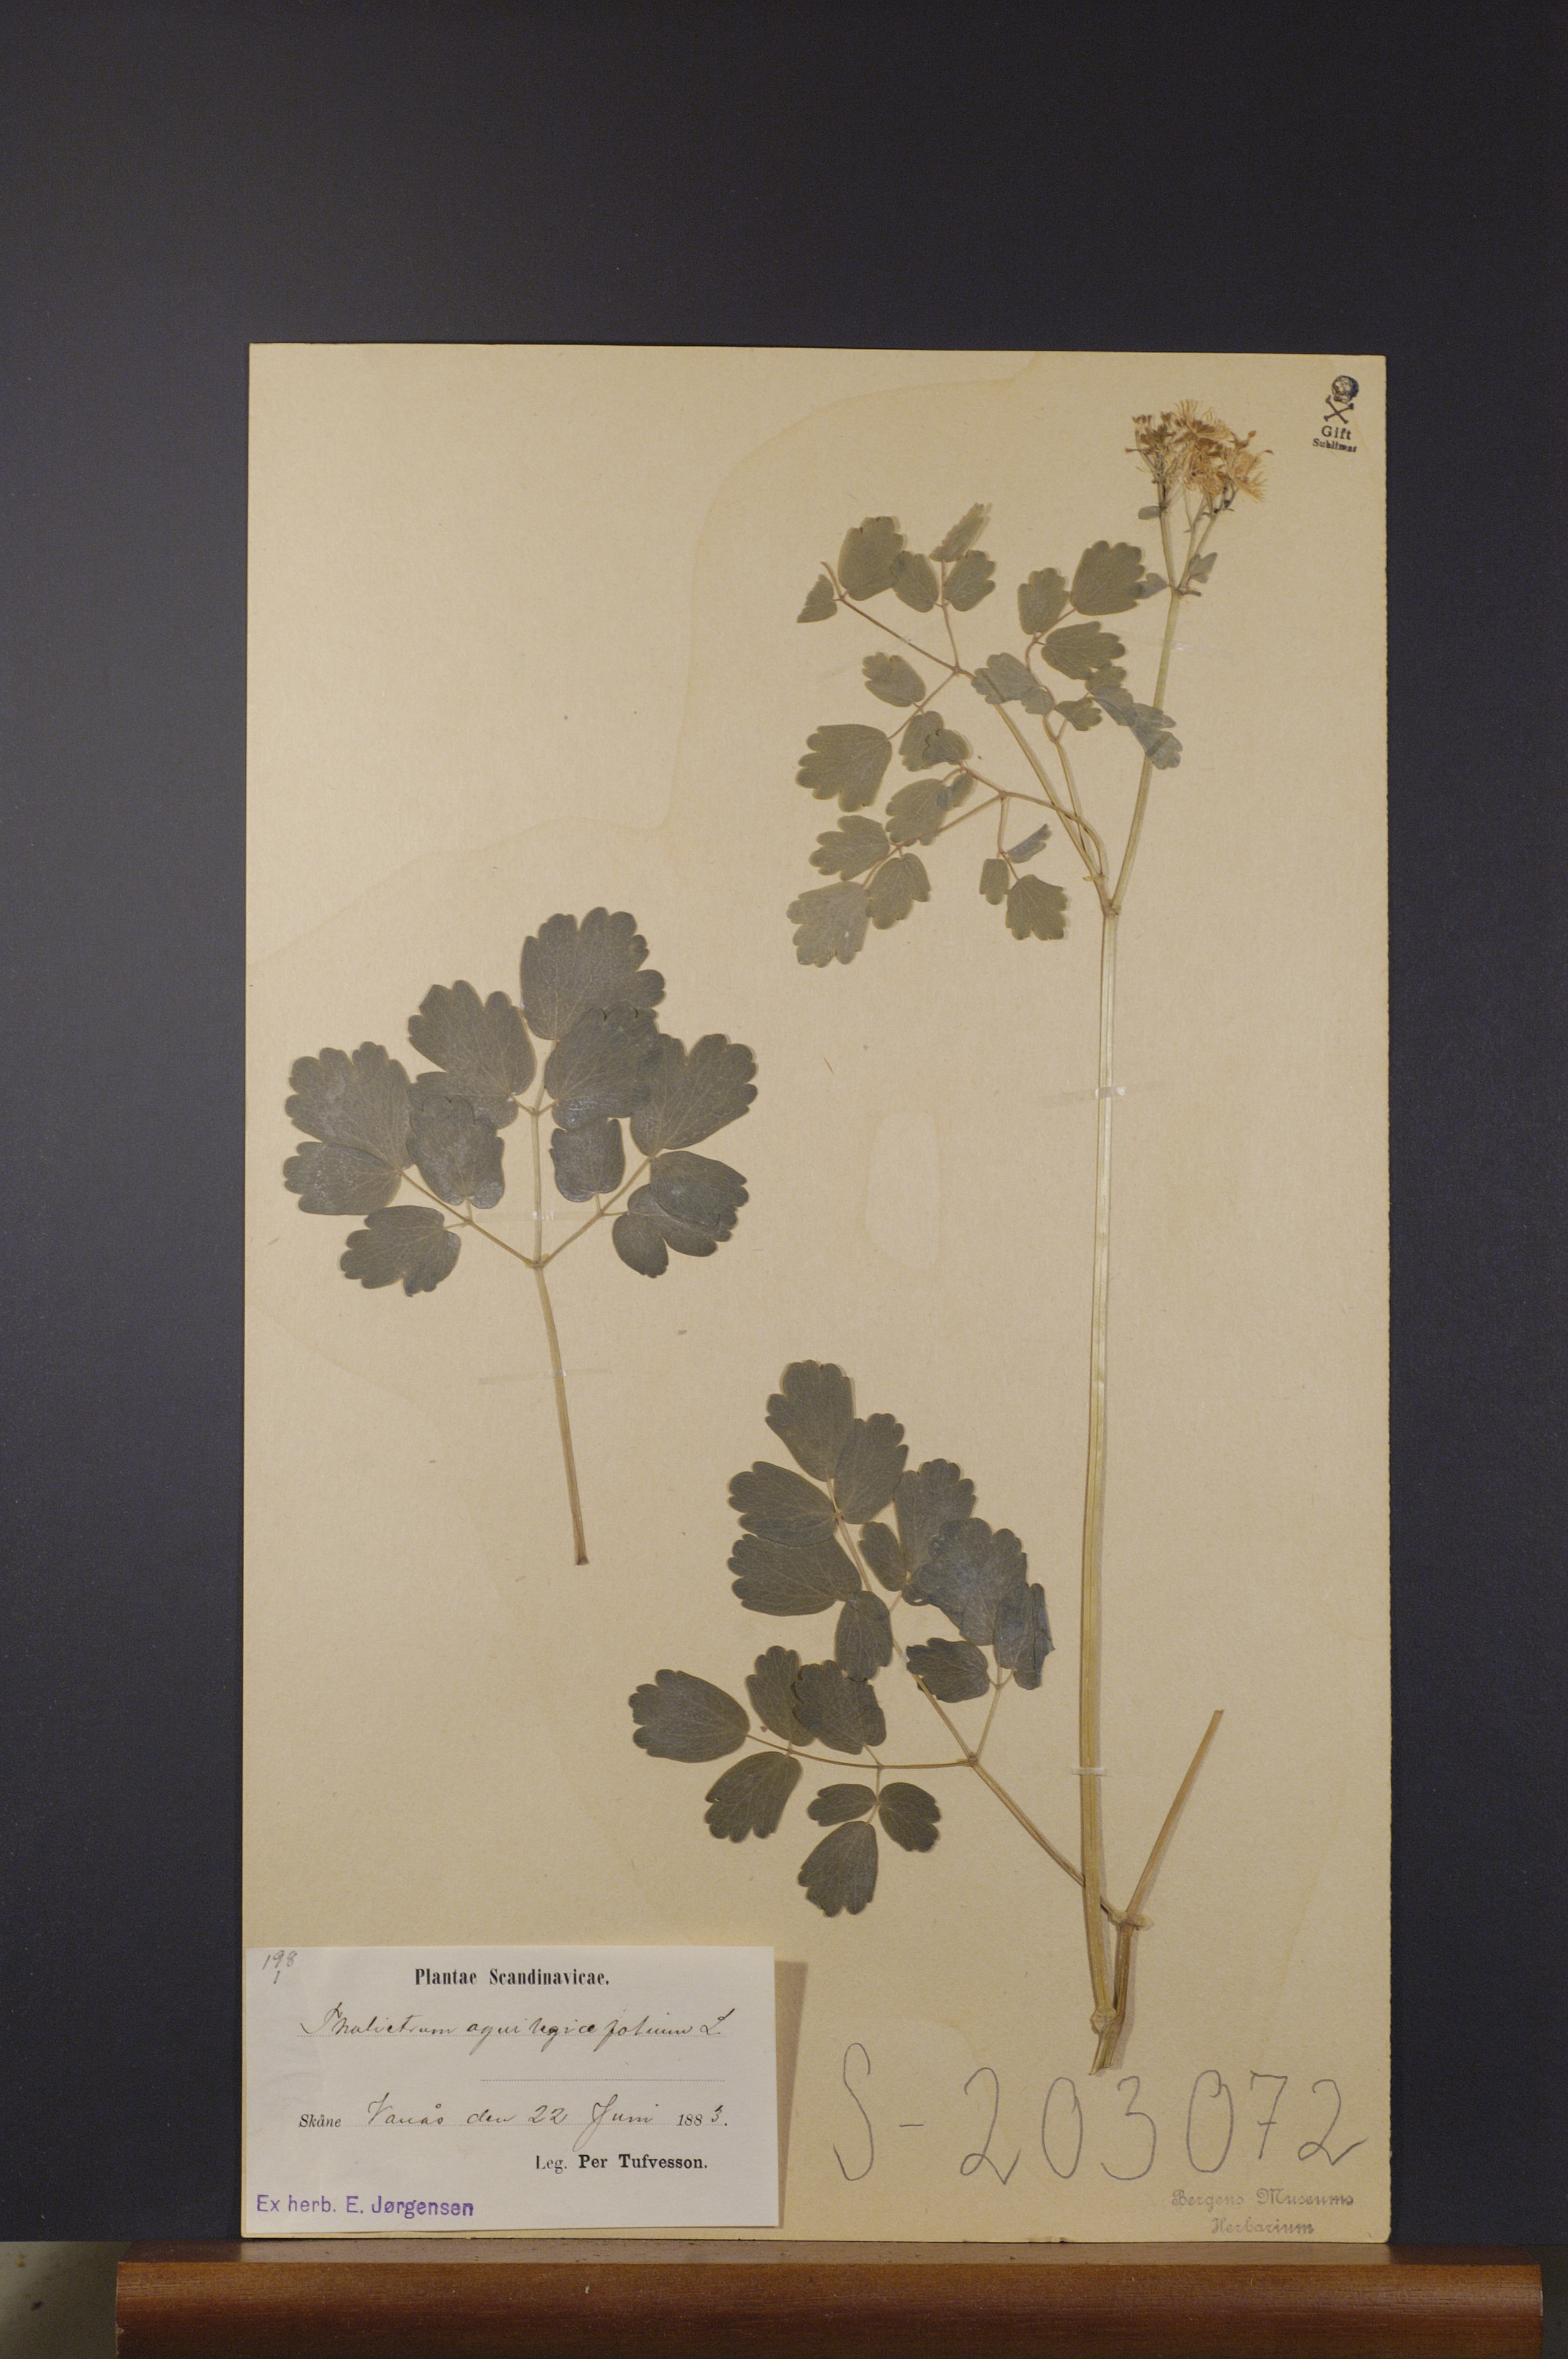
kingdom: Plantae
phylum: Tracheophyta
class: Magnoliopsida
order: Ranunculales
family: Ranunculaceae
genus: Thalictrum
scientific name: Thalictrum aquilegiifolium
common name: French meadow-rue
